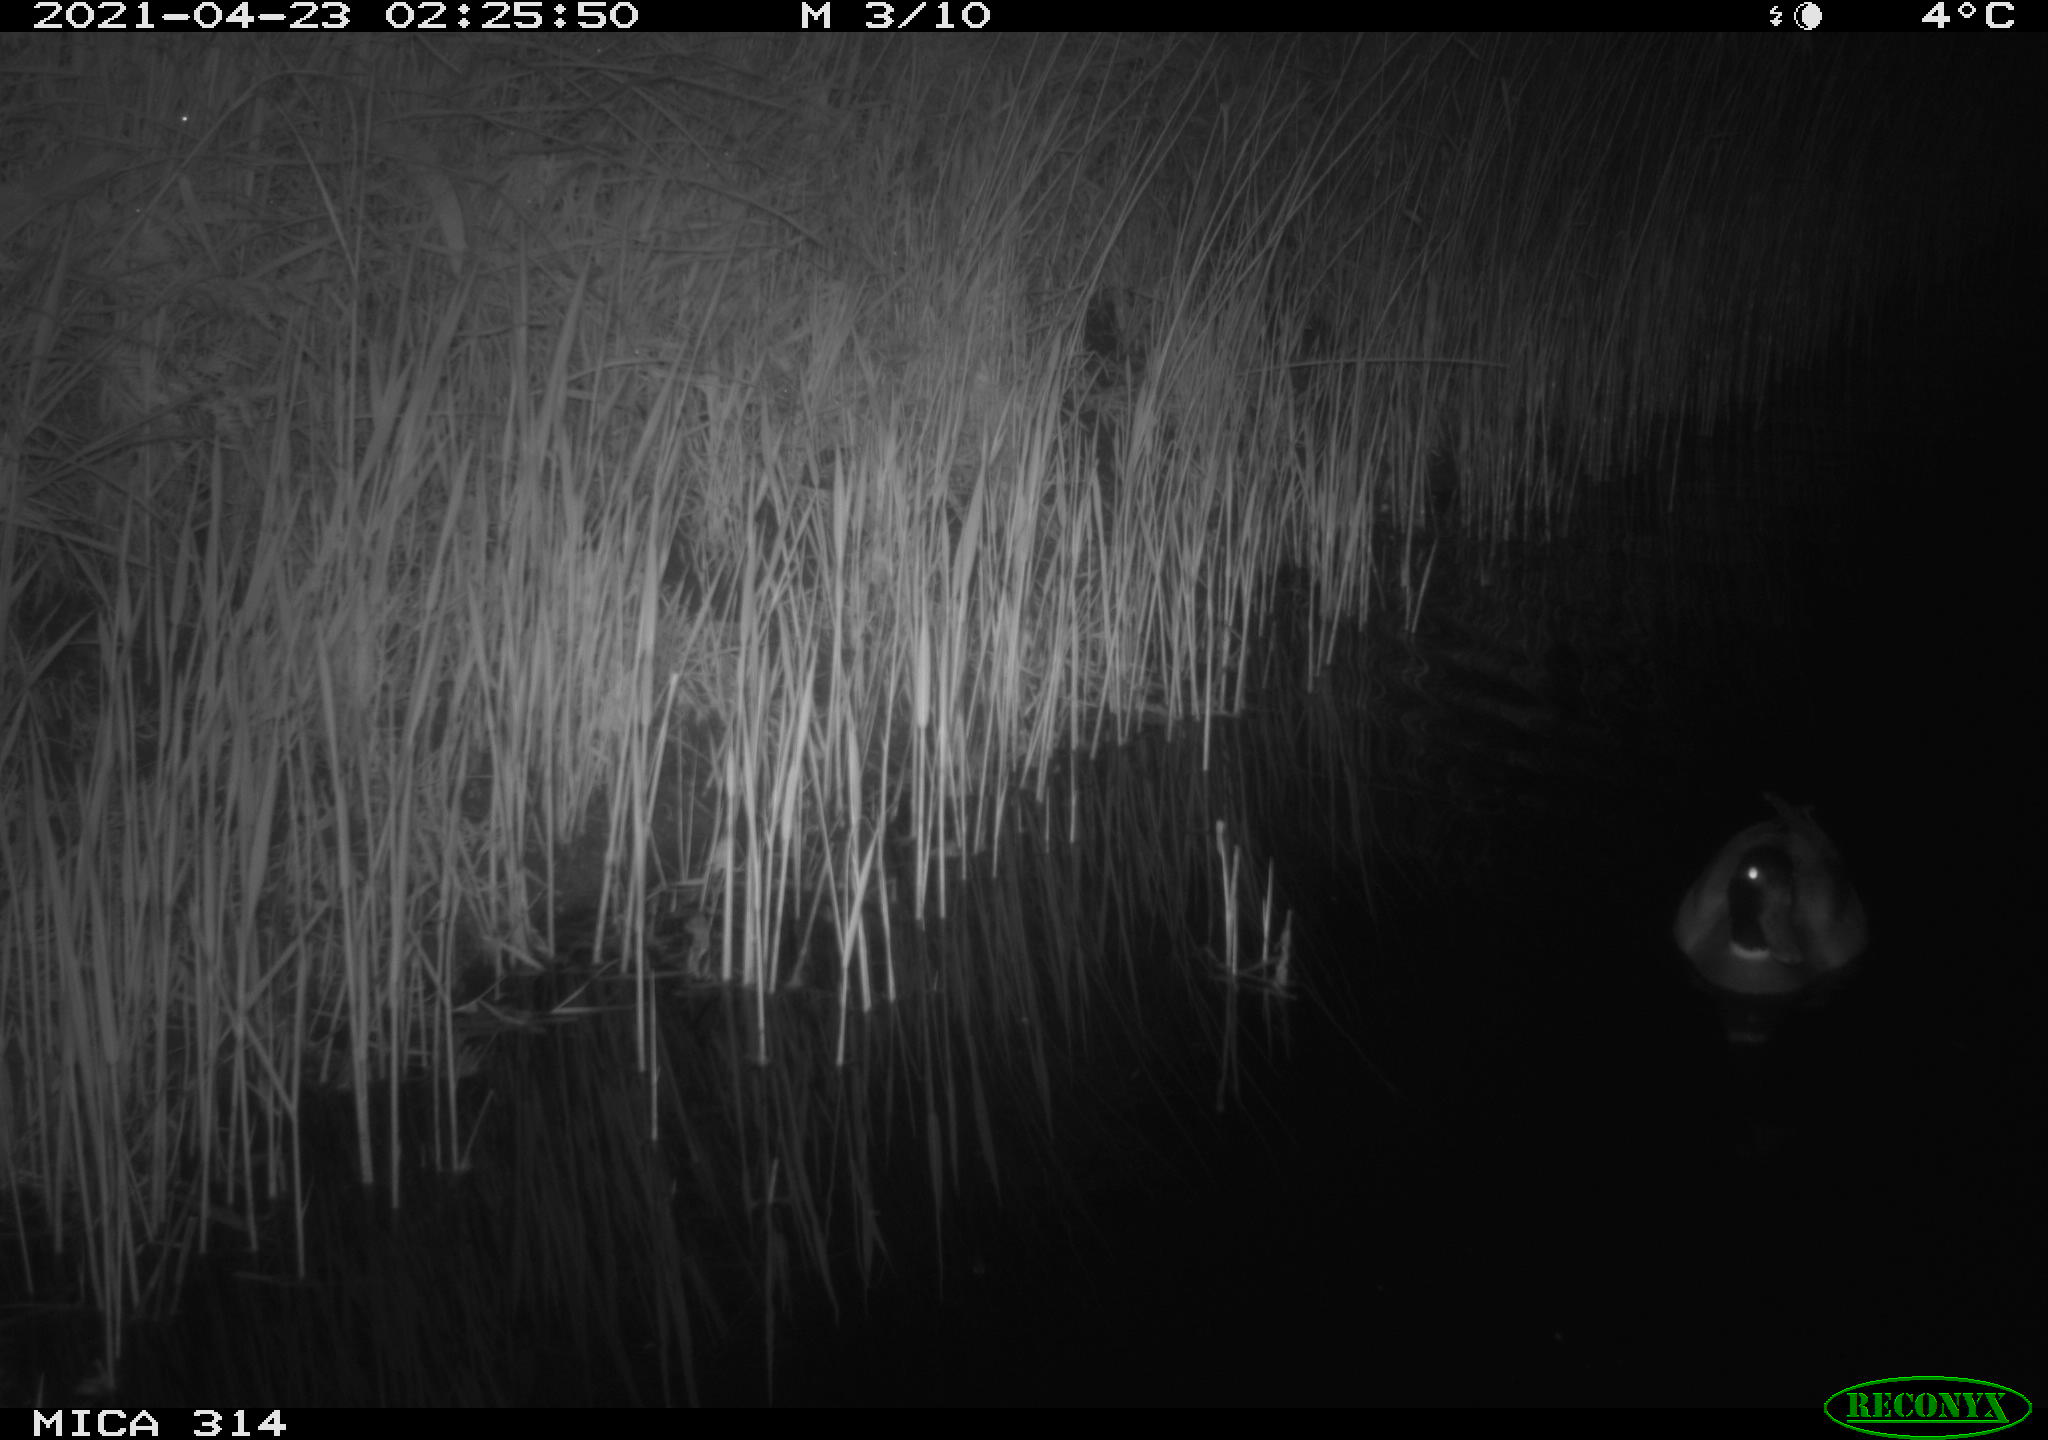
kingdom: Animalia
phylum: Chordata
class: Aves
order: Anseriformes
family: Anatidae
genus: Anas
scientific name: Anas platyrhynchos
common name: Mallard
